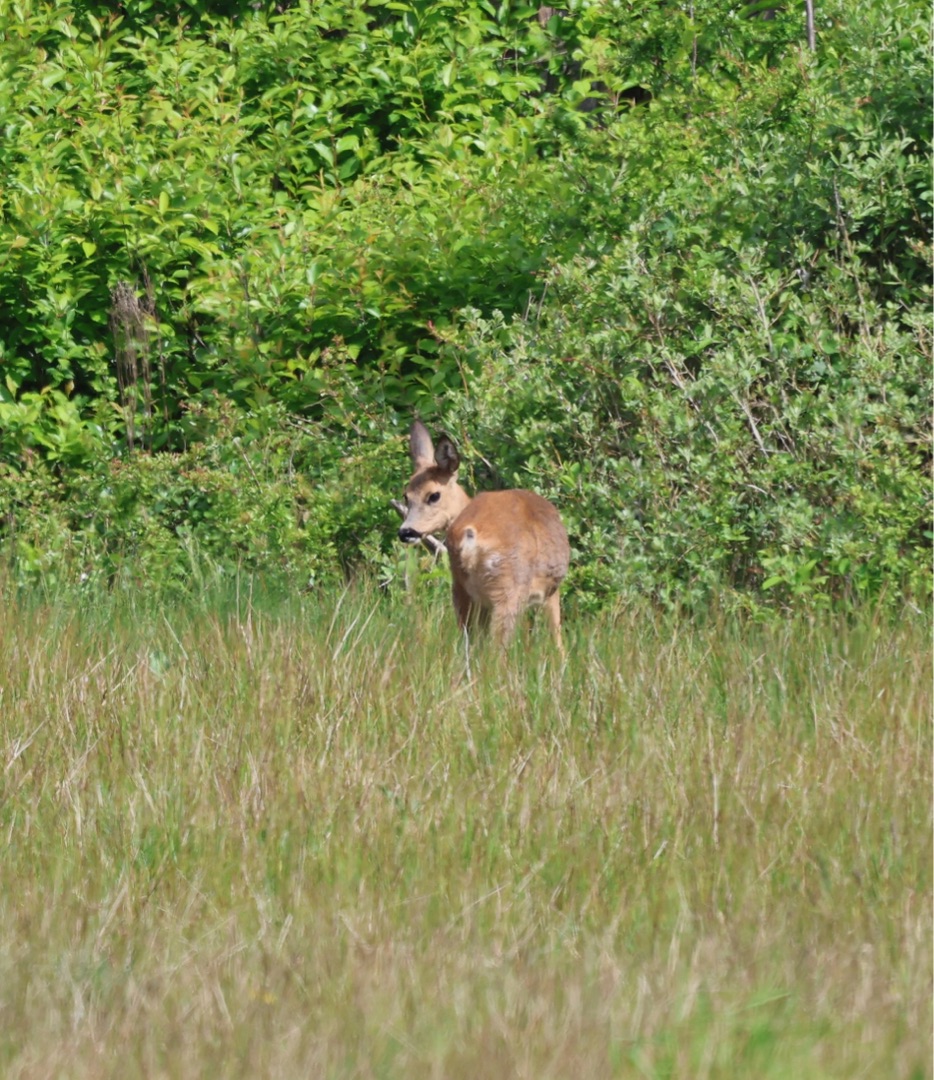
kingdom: Animalia
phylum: Chordata
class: Mammalia
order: Artiodactyla
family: Cervidae
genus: Capreolus
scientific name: Capreolus capreolus
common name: Rådyr
